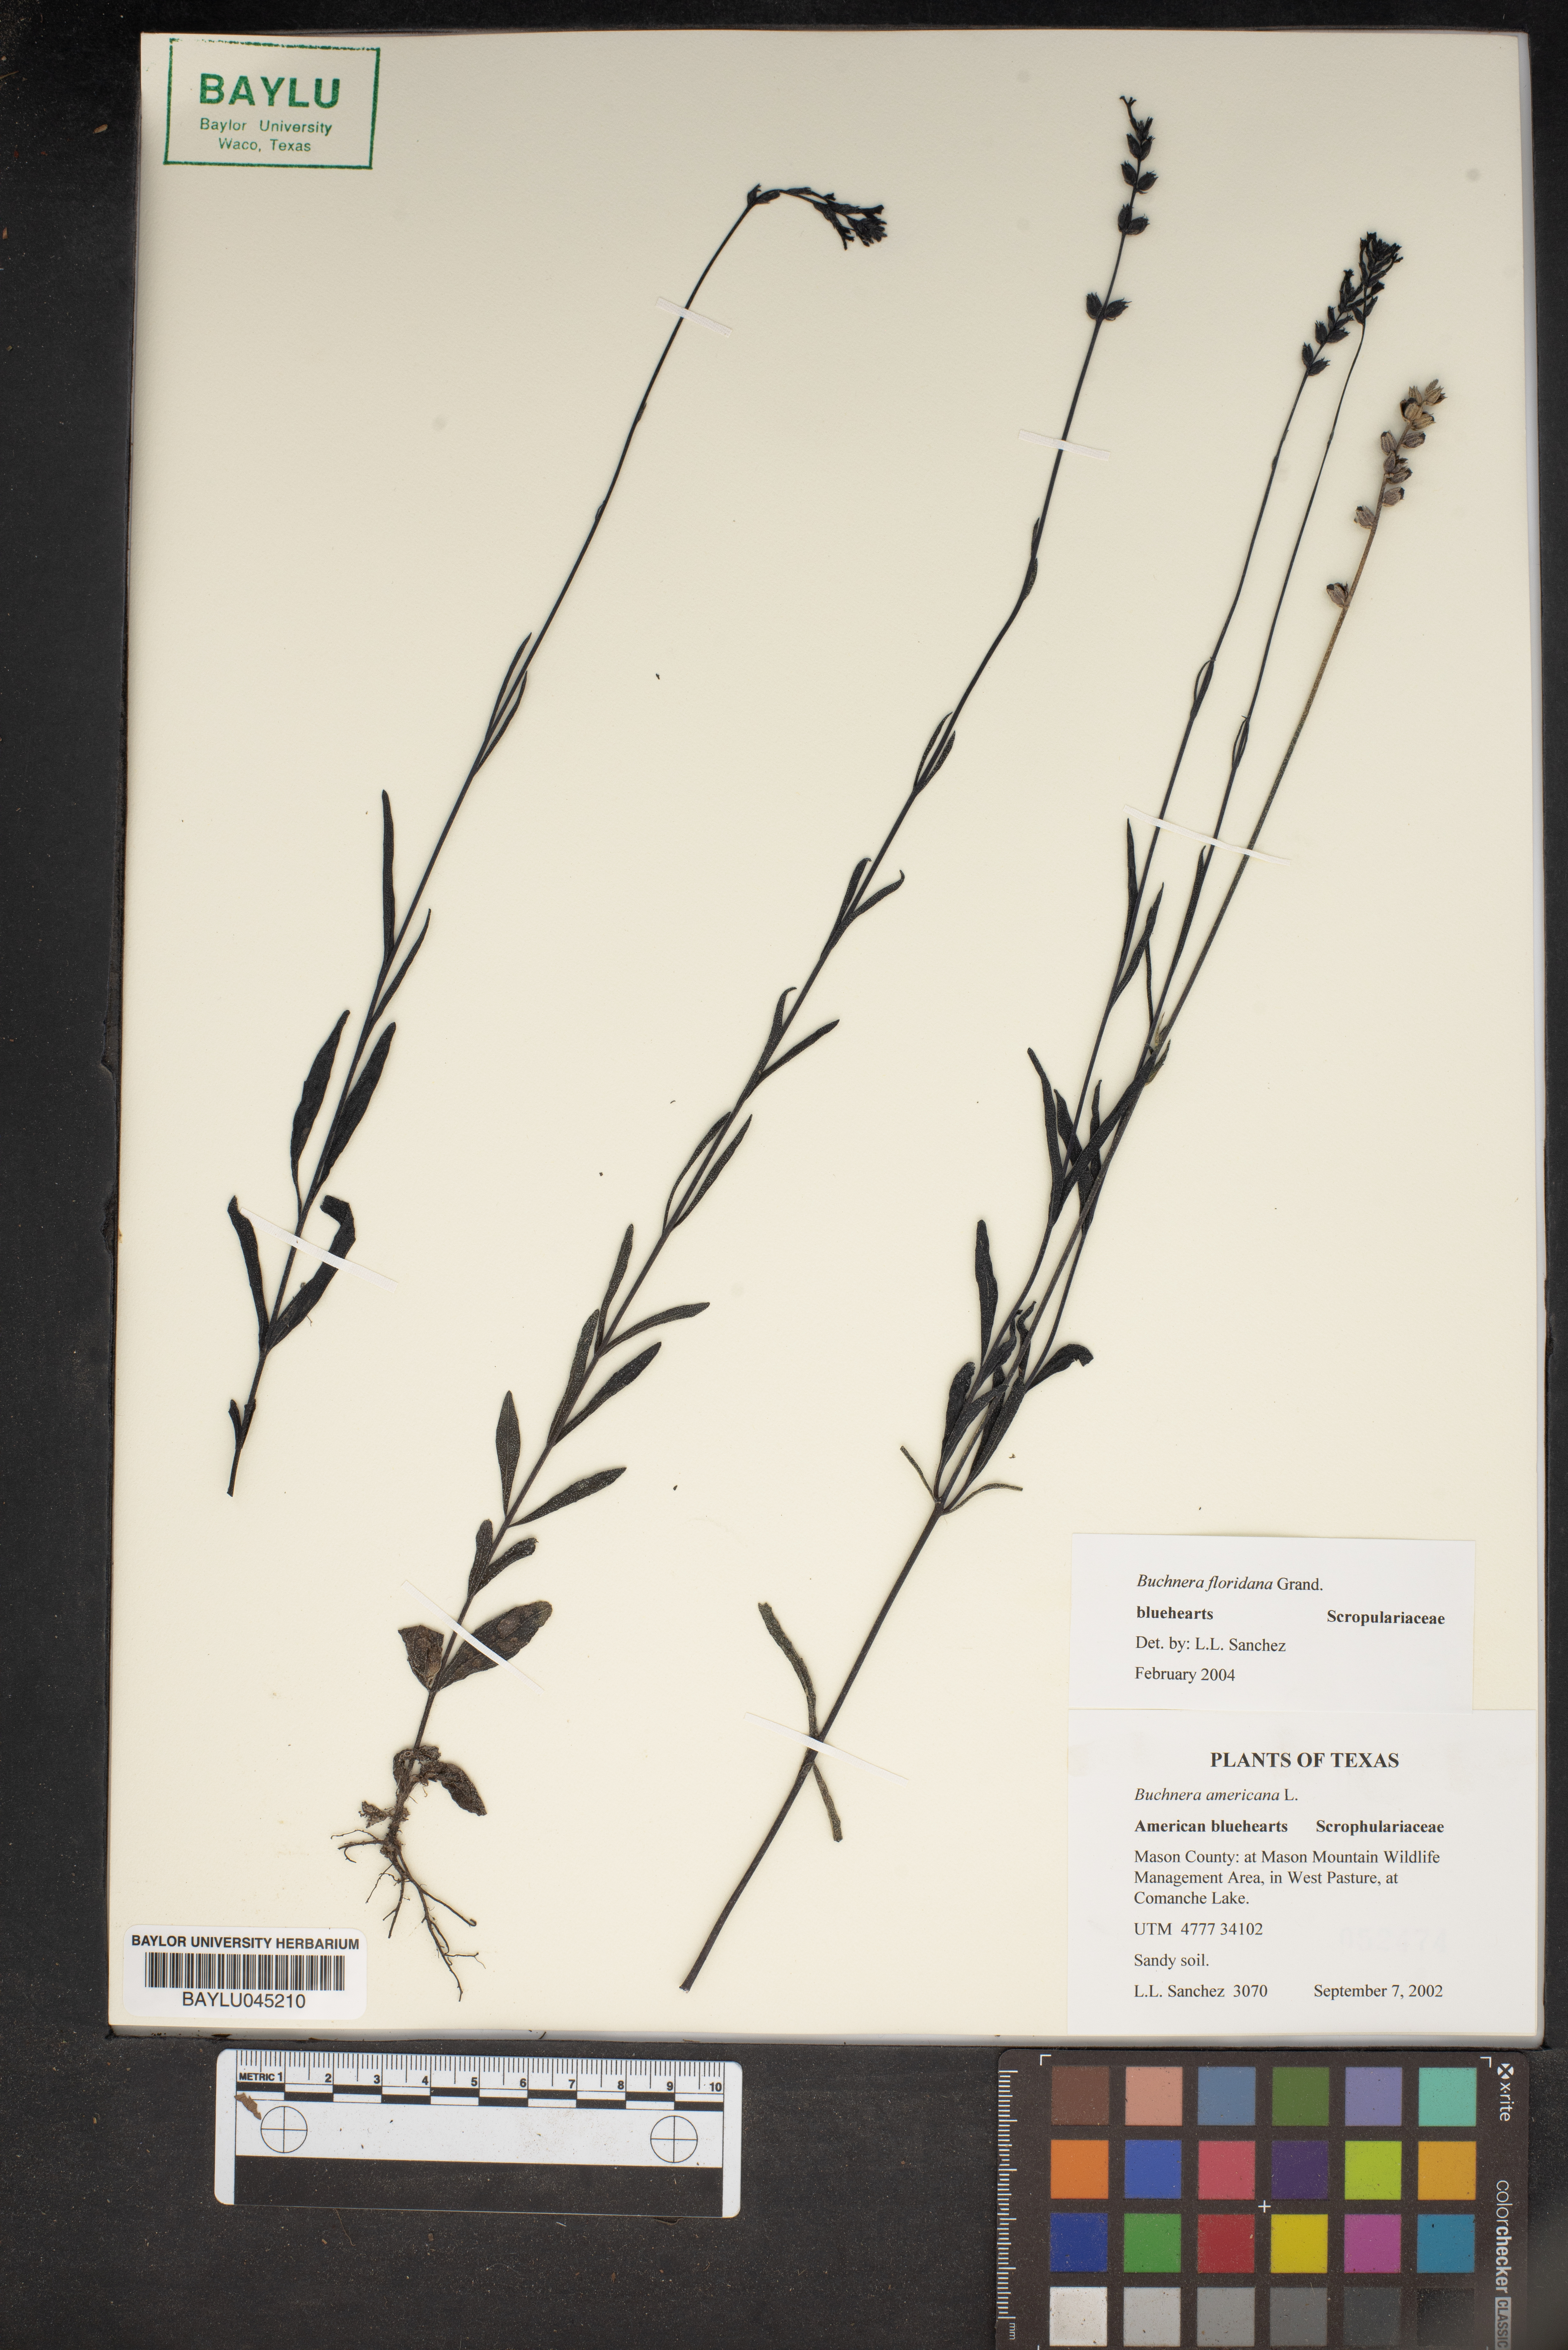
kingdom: Plantae
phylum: Tracheophyta
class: Magnoliopsida
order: Lamiales
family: Orobanchaceae
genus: Buchnera
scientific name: Buchnera floridana
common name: Florida bluehearts
